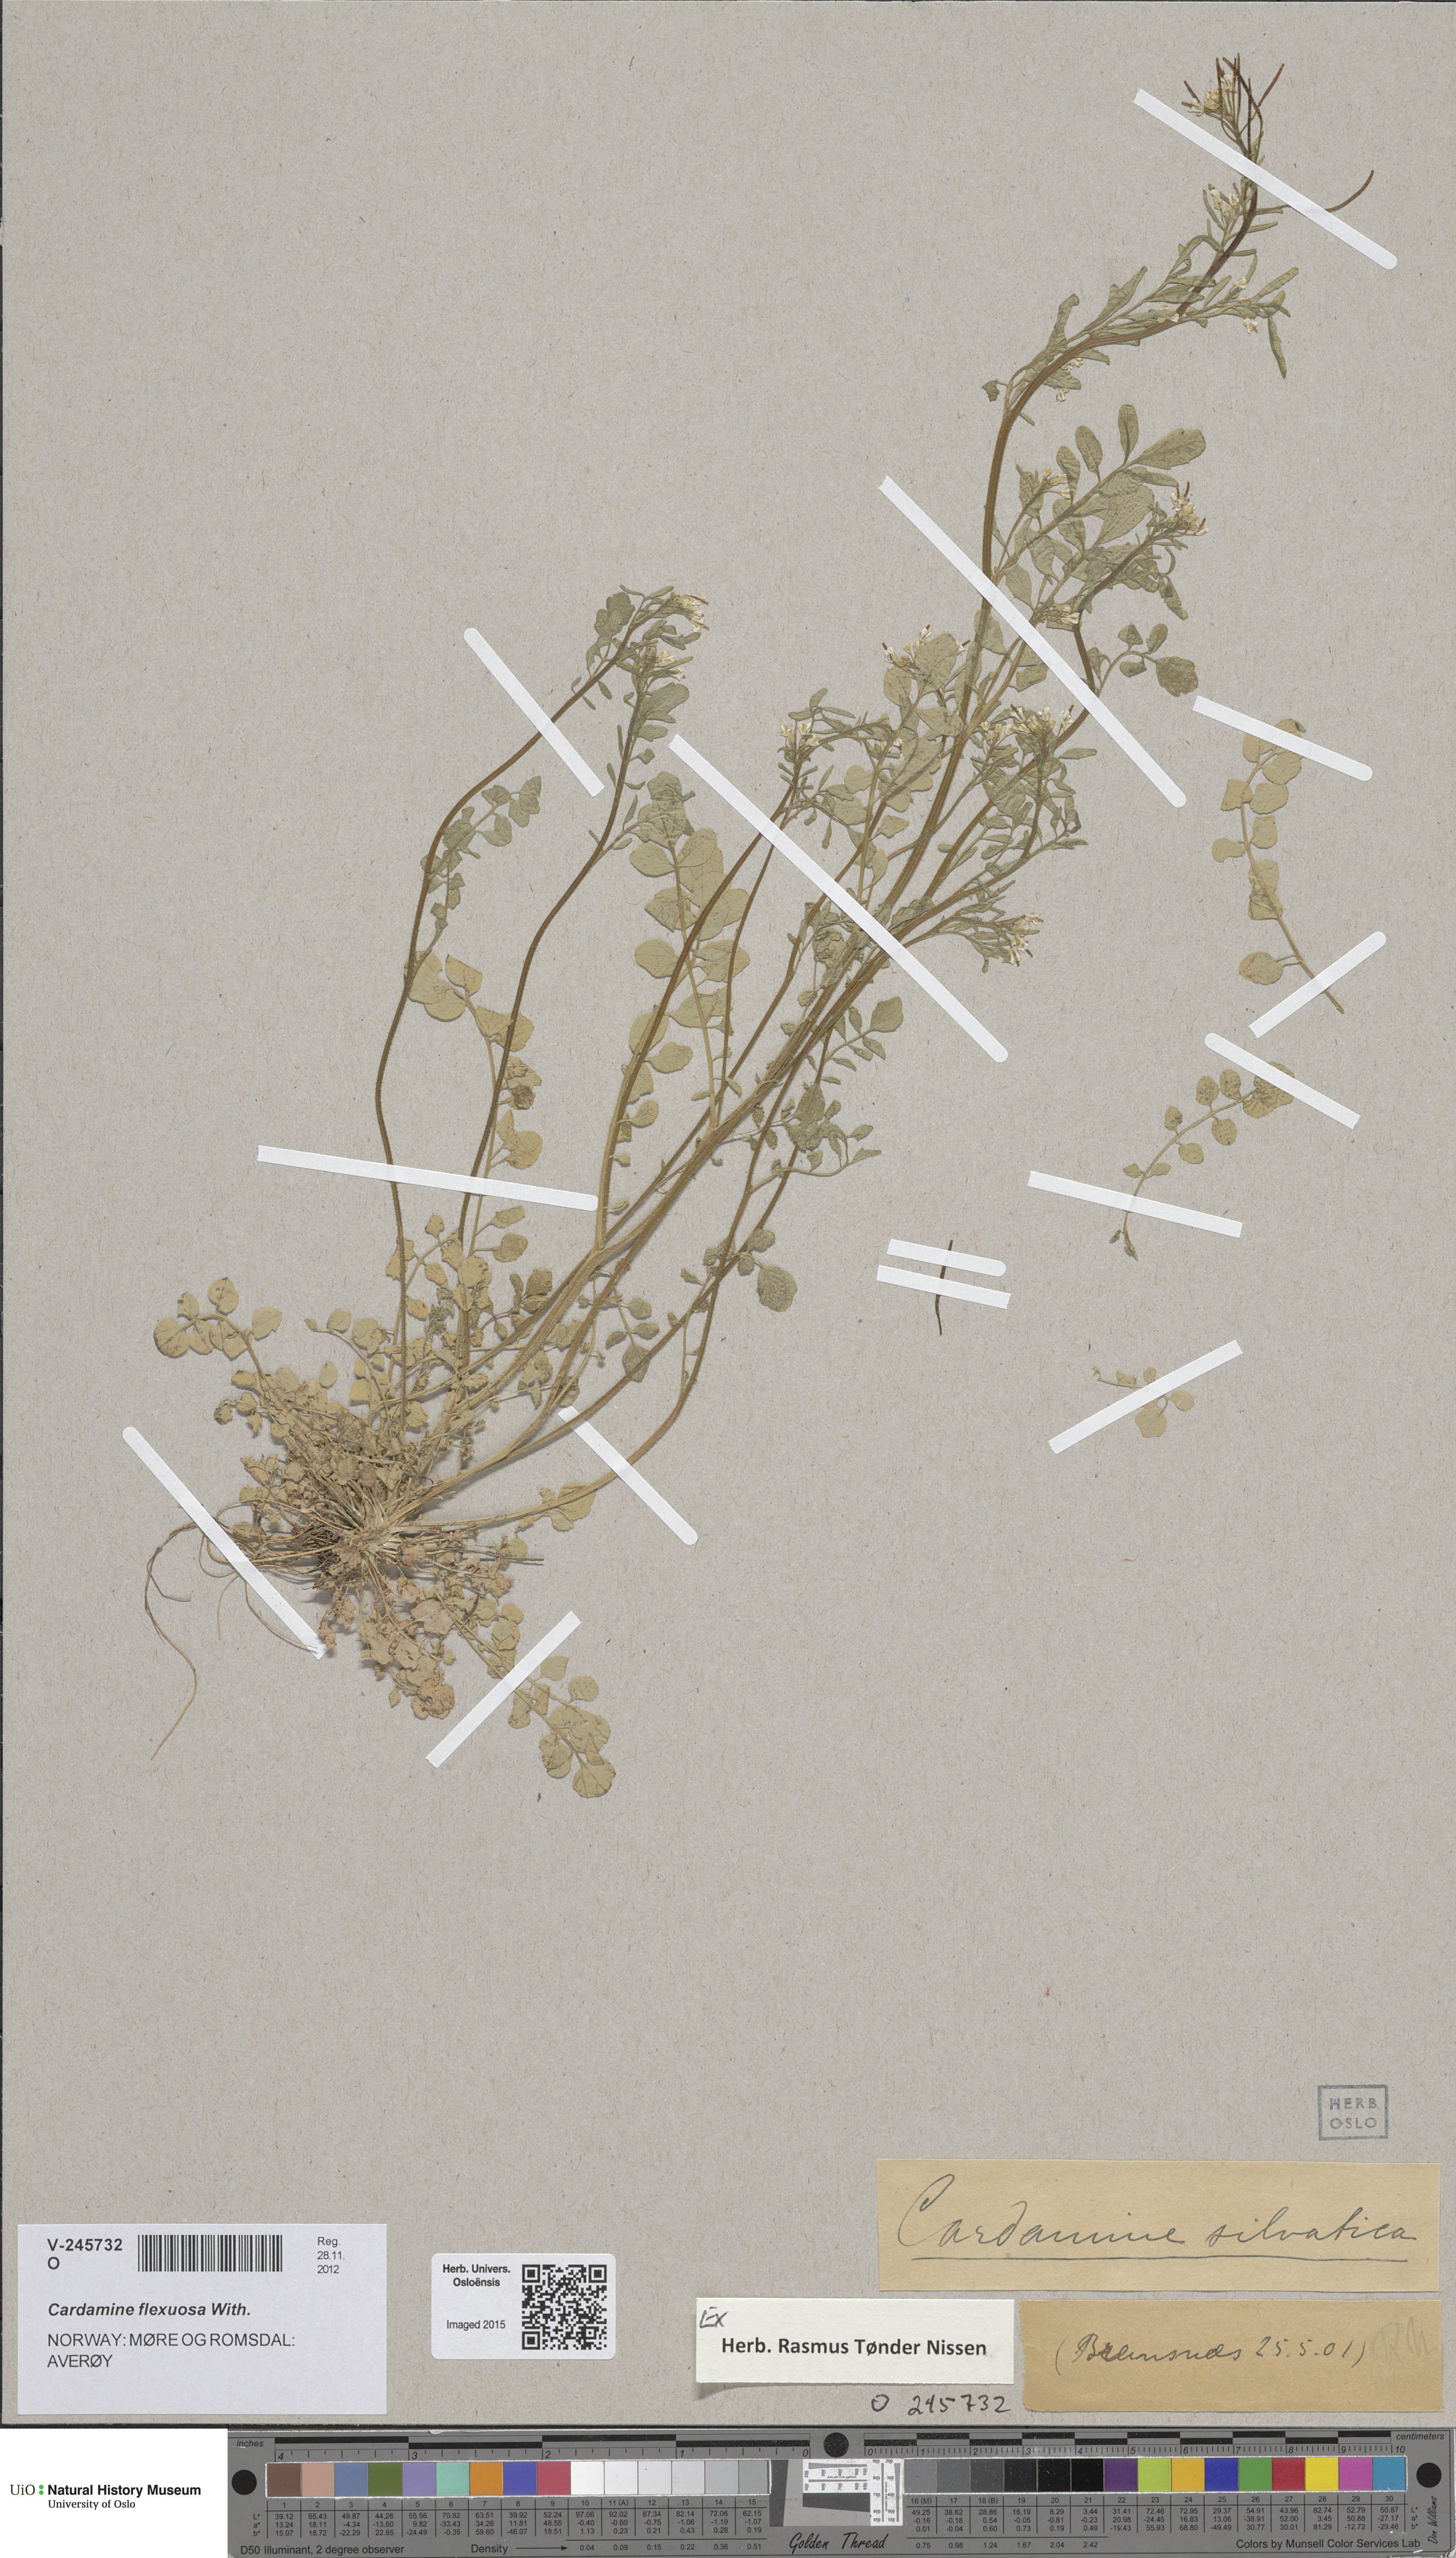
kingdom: Plantae
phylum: Tracheophyta
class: Magnoliopsida
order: Brassicales
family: Brassicaceae
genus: Cardamine
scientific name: Cardamine flexuosa
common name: Woodland bittercress
